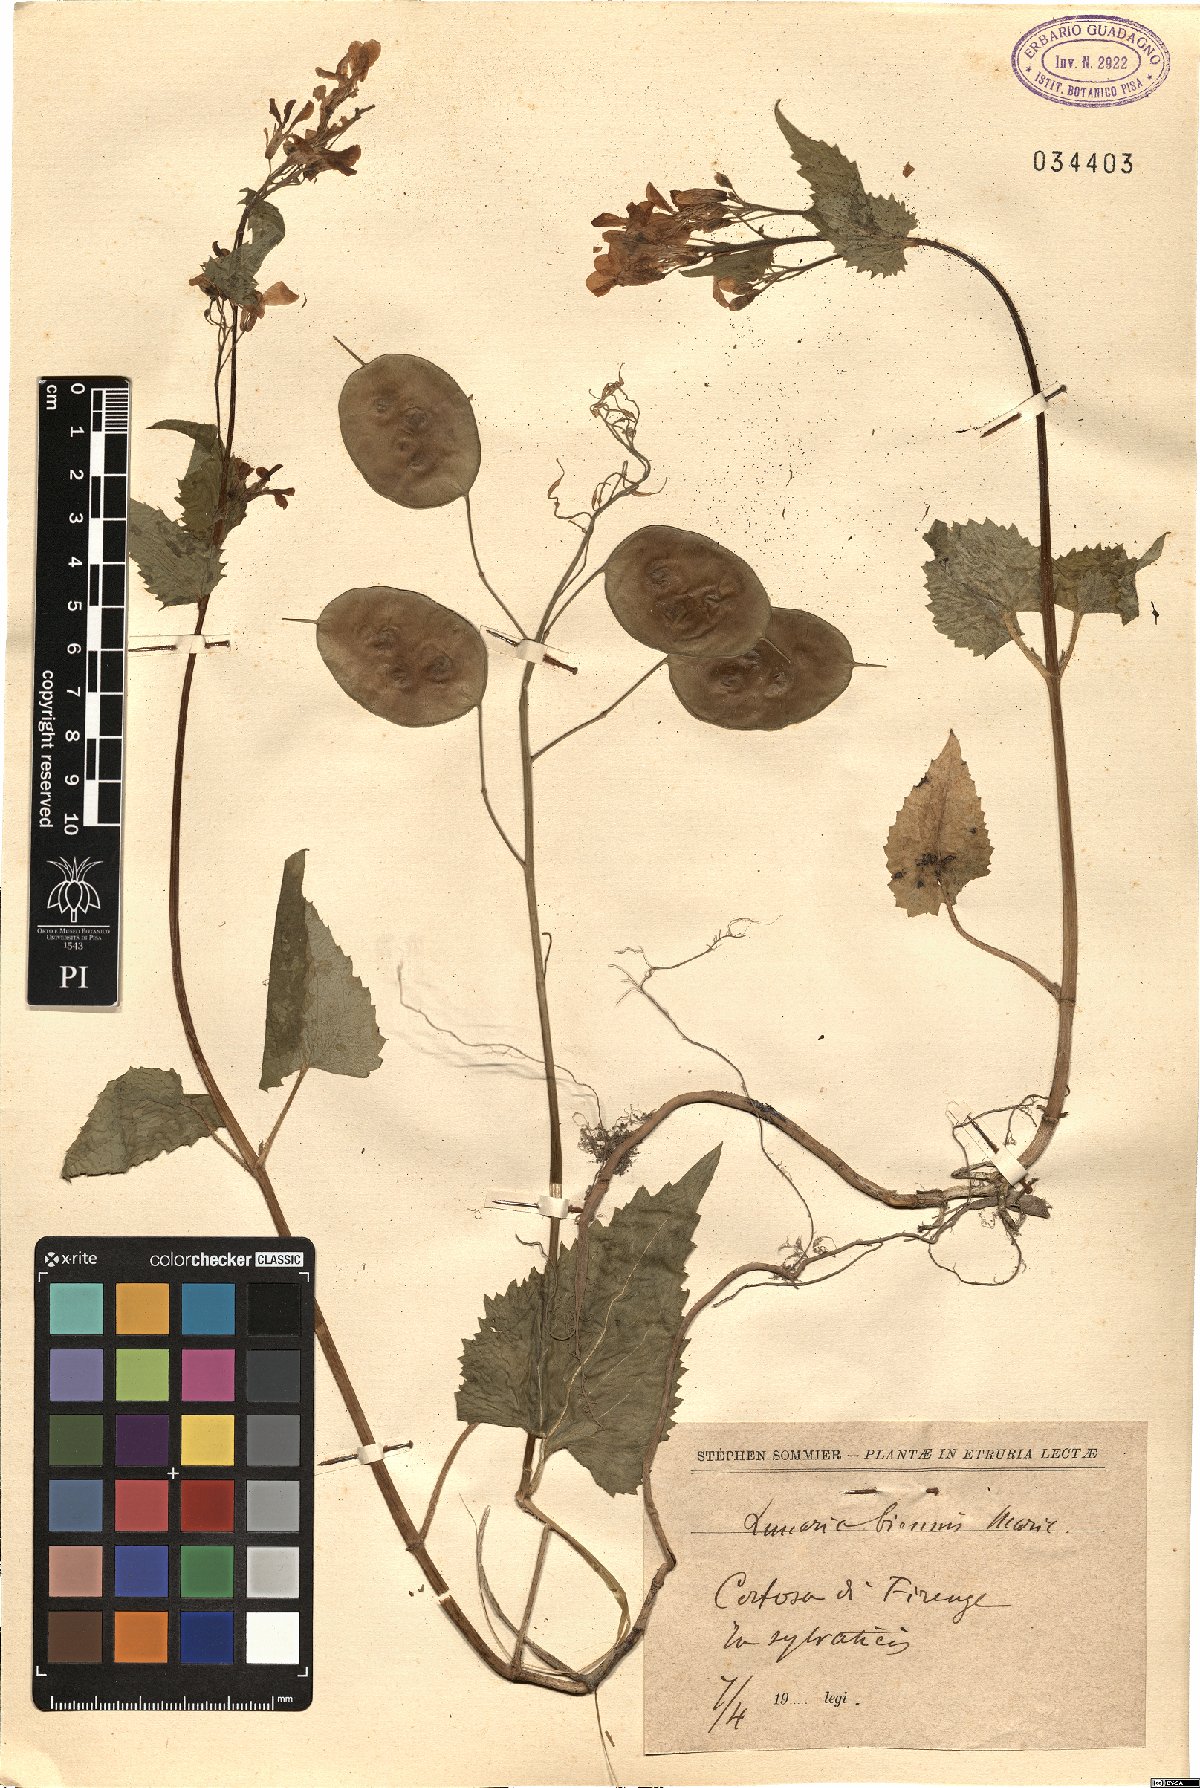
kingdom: Plantae
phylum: Tracheophyta
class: Magnoliopsida
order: Brassicales
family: Brassicaceae
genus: Lunaria
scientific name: Lunaria annua
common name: Honesty
